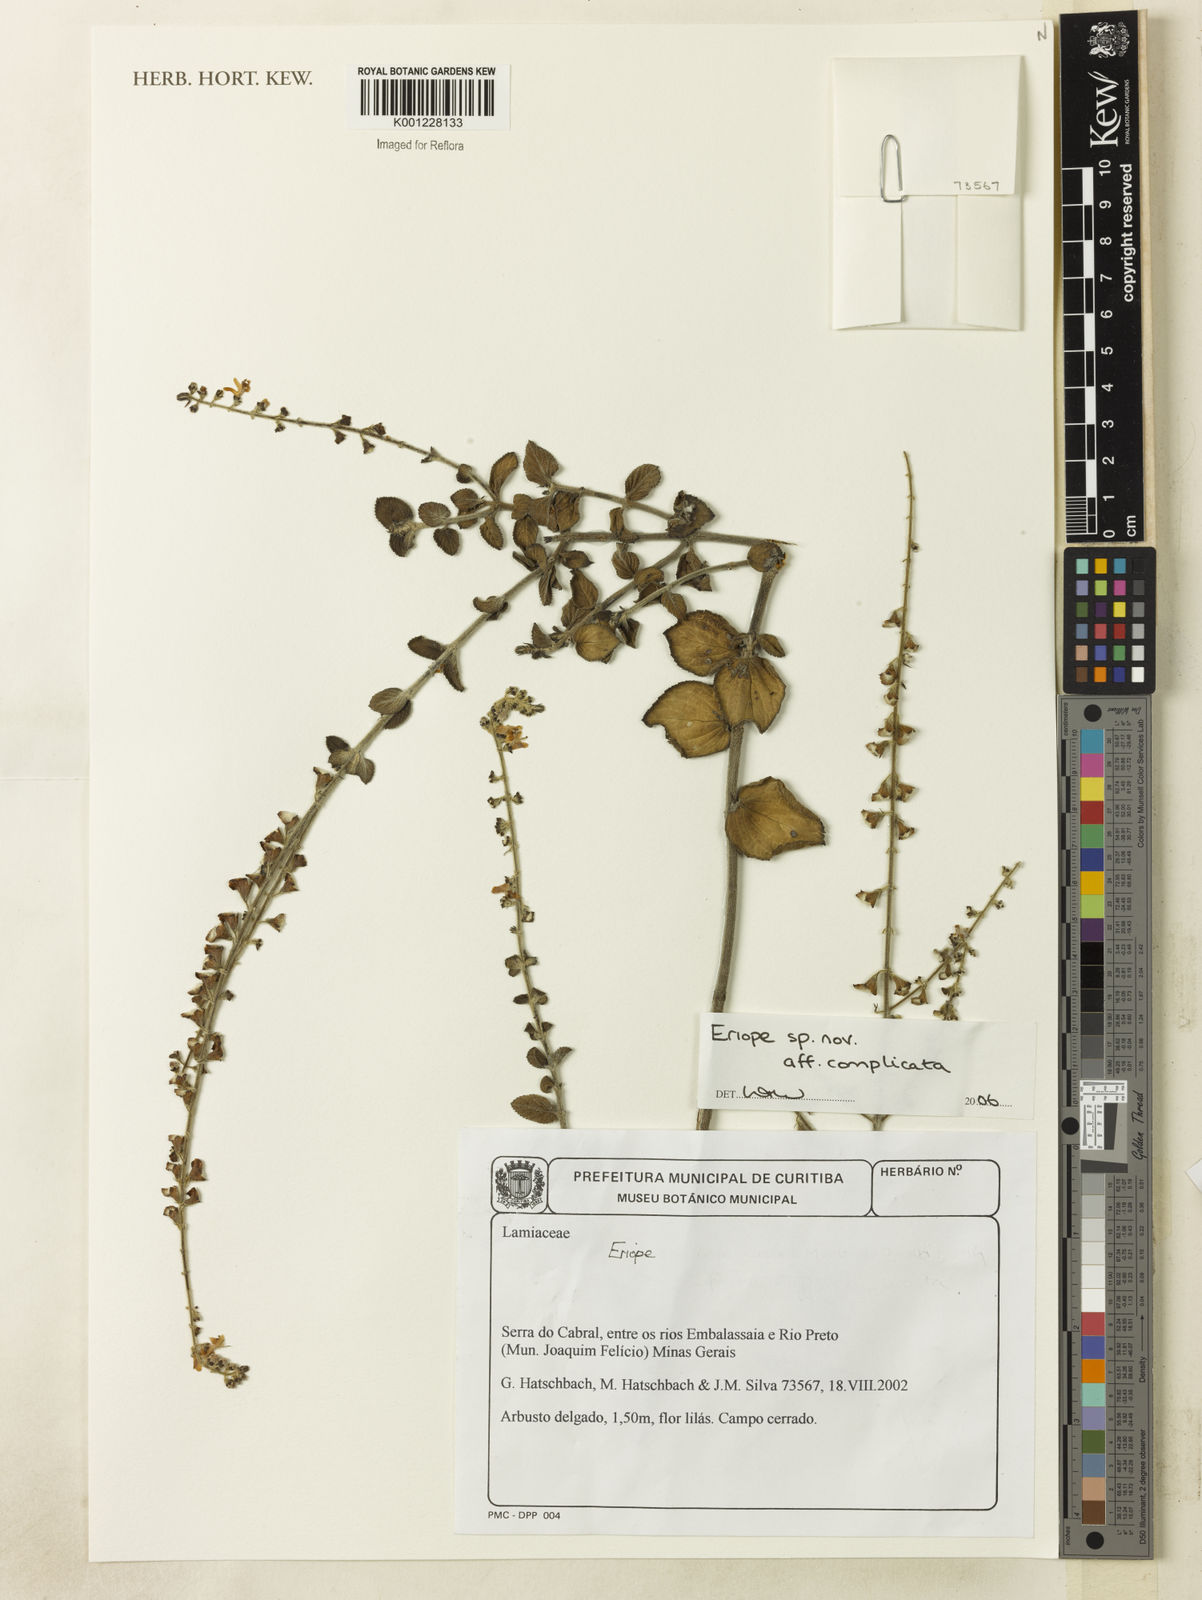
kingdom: Plantae
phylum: Tracheophyta
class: Magnoliopsida
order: Lamiales
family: Lamiaceae
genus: Eriope
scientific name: Eriope
